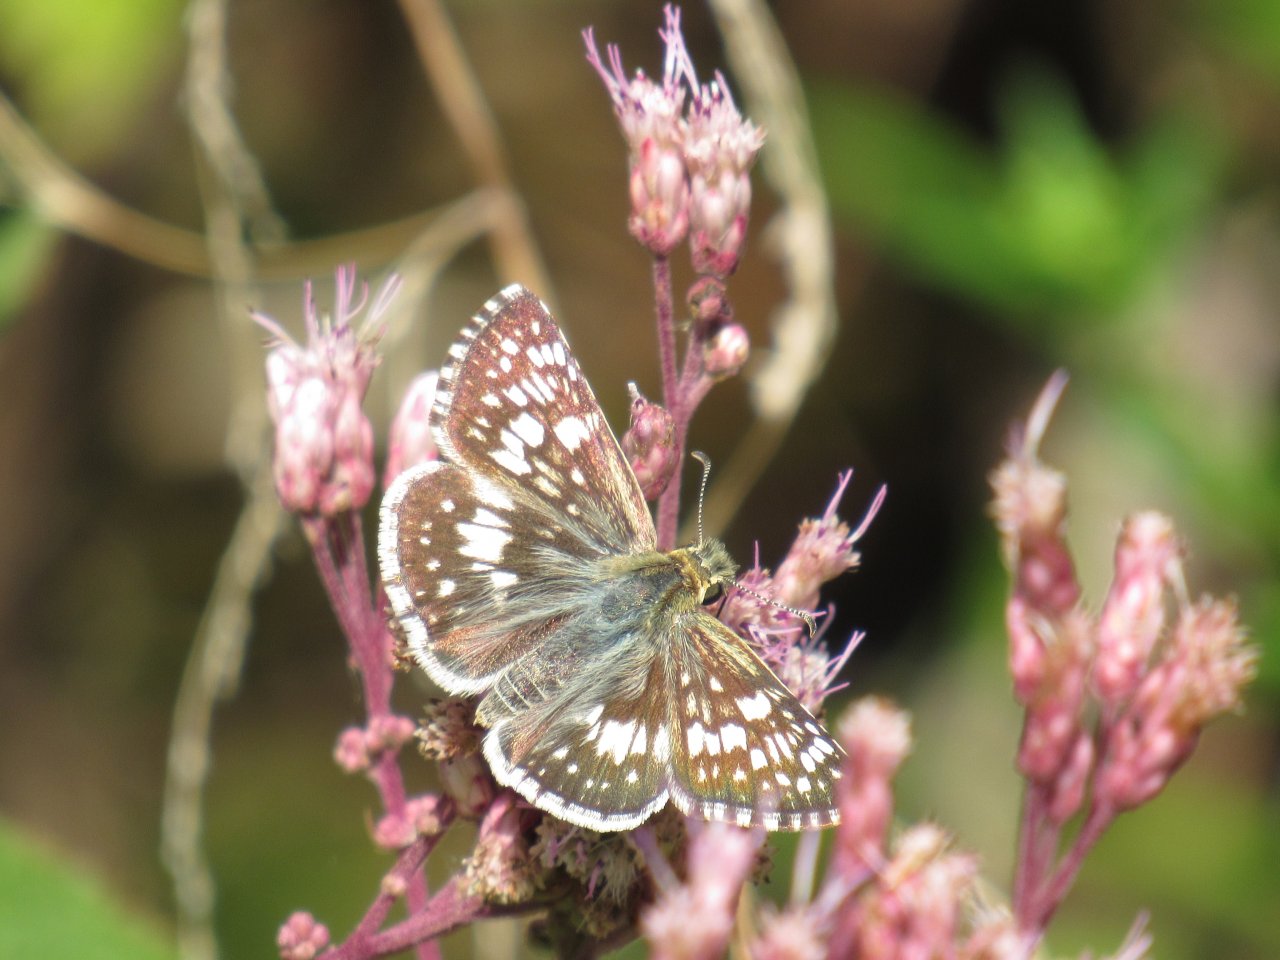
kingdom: Animalia
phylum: Arthropoda
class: Insecta
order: Lepidoptera
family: Hesperiidae
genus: Pyrgus
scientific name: Pyrgus communis
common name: Common Checkered-Skipper
